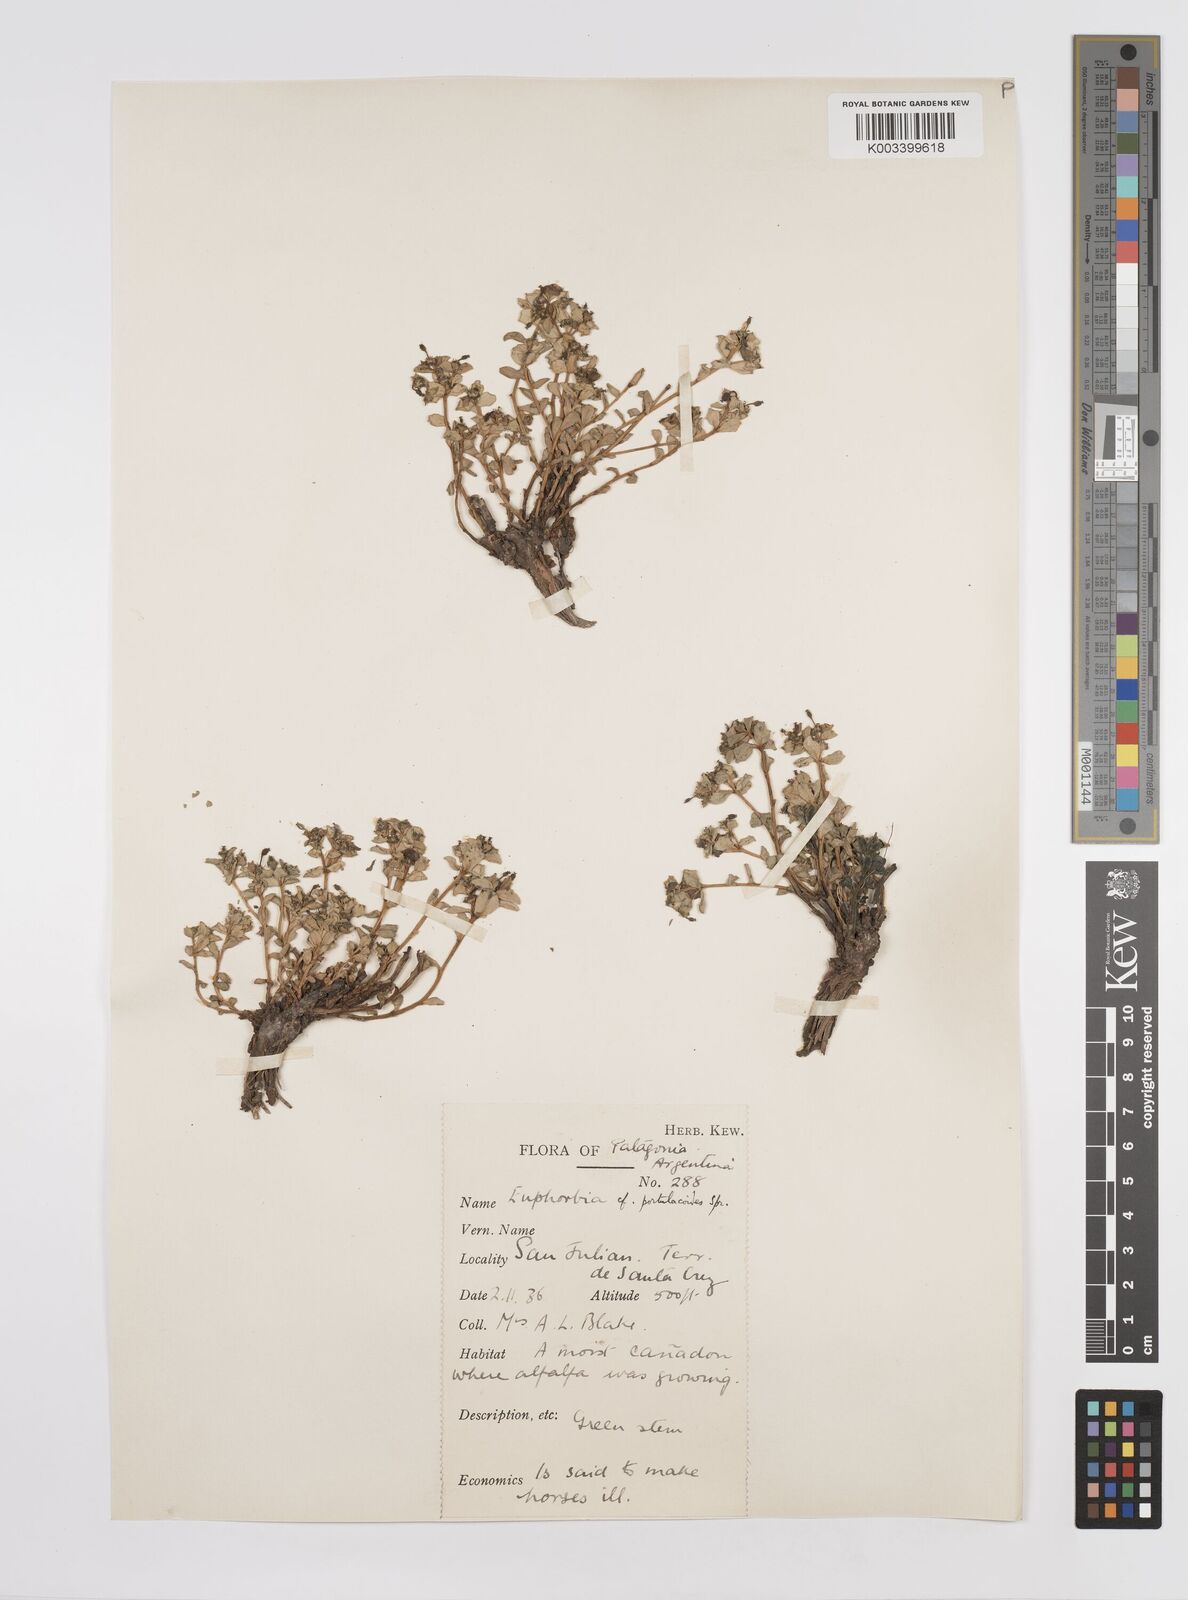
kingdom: Plantae
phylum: Tracheophyta
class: Magnoliopsida
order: Malpighiales
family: Euphorbiaceae
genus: Euphorbia
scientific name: Euphorbia portulacoides
